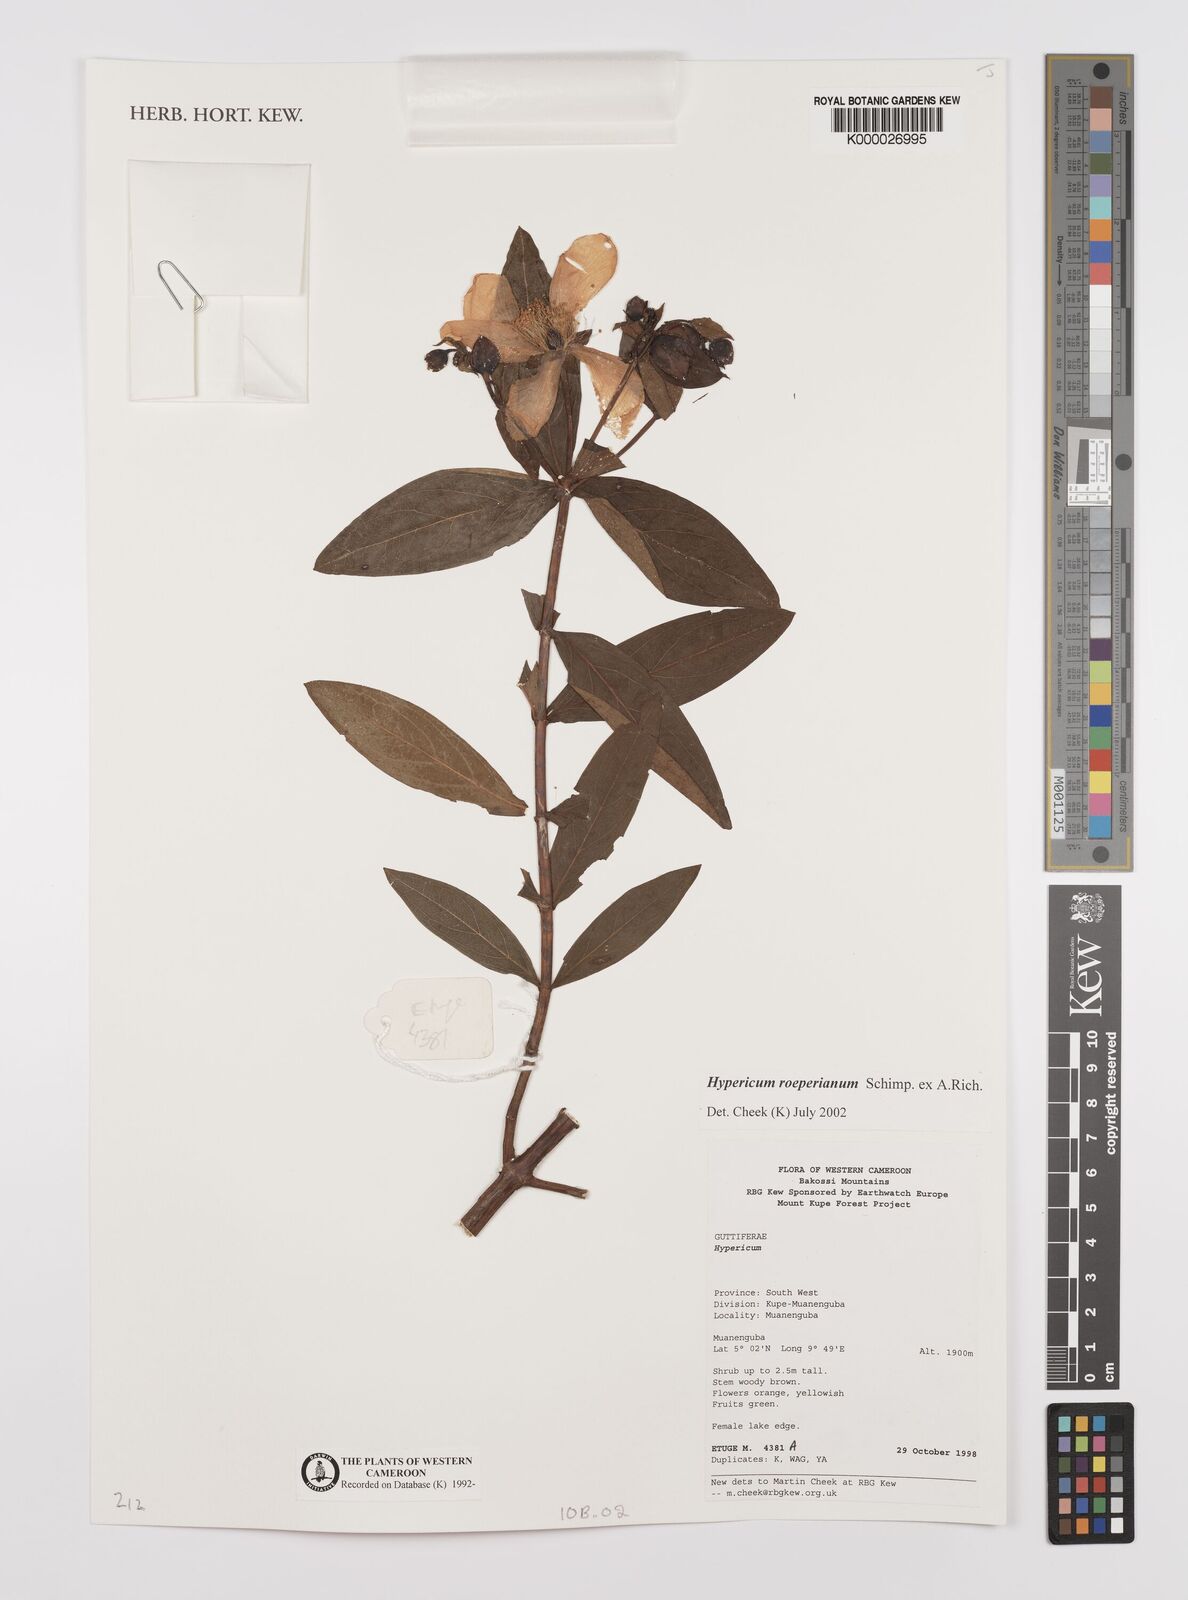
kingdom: Plantae
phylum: Tracheophyta
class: Magnoliopsida
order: Malpighiales
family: Hypericaceae
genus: Hypericum
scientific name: Hypericum roeperianum
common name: Large-leaved curry-bush
